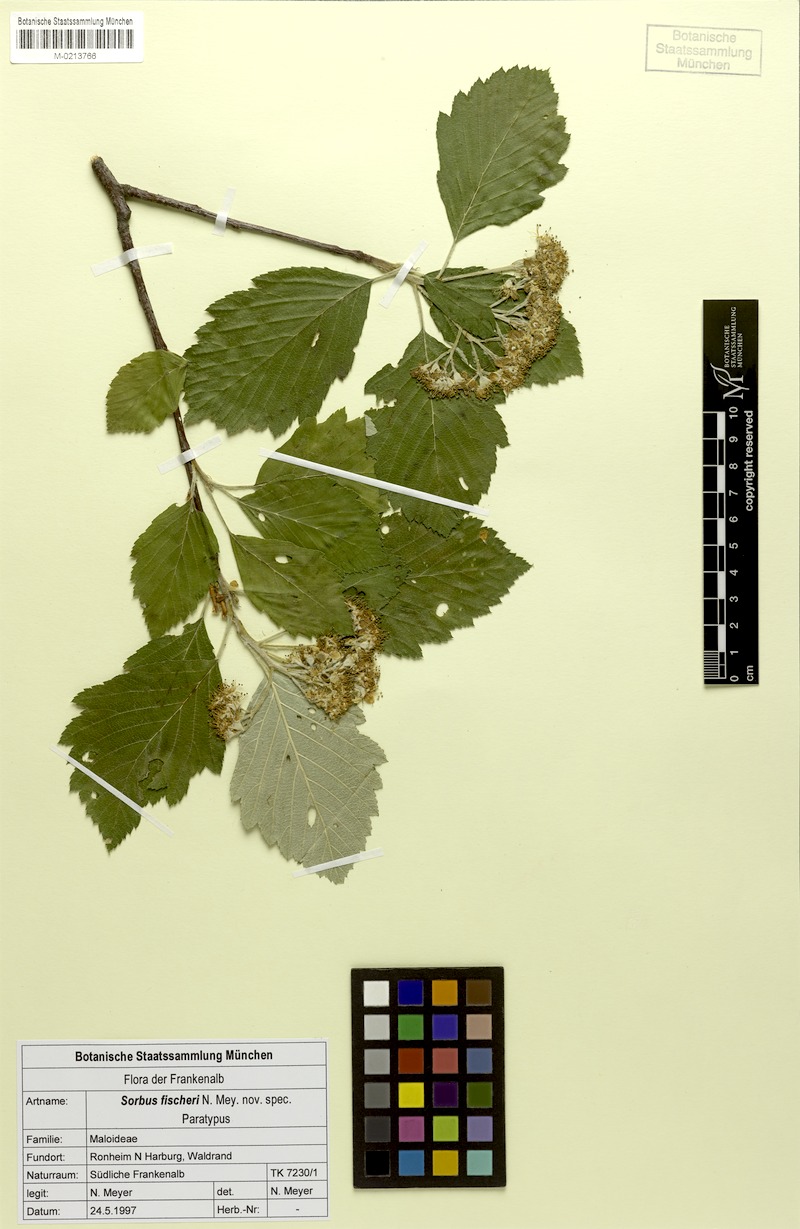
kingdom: Plantae
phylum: Tracheophyta
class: Magnoliopsida
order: Rosales
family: Rosaceae
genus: Karpatiosorbus
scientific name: Karpatiosorbus fischeri
